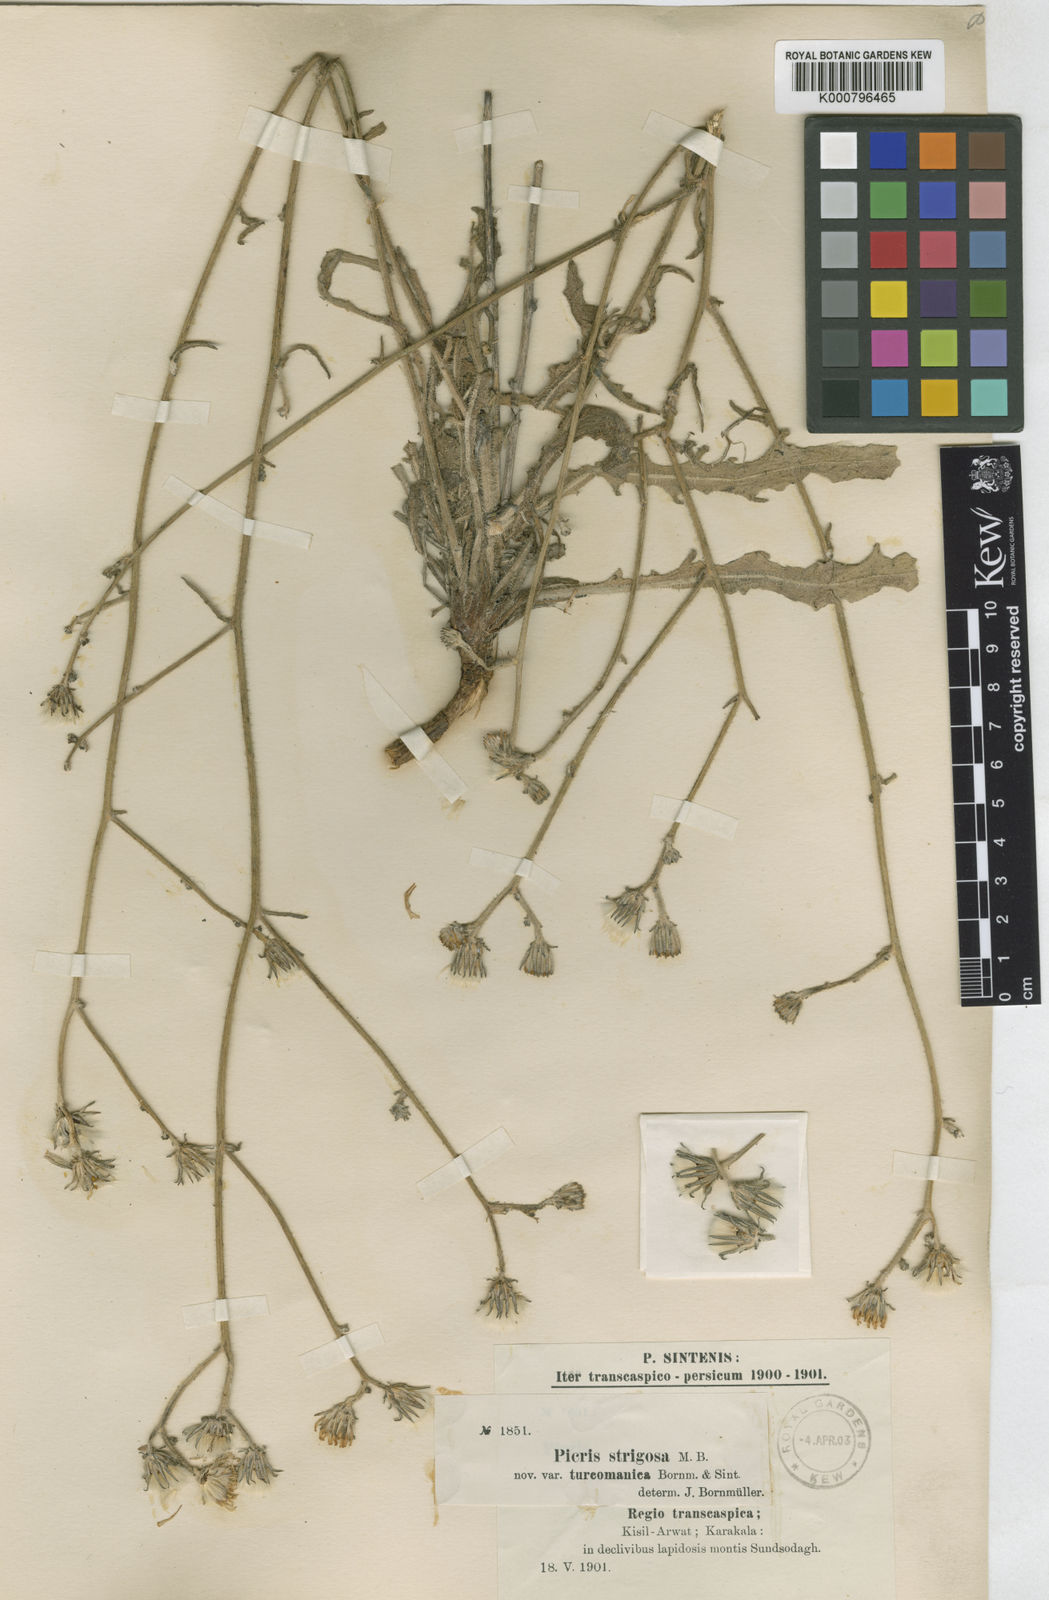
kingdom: Plantae
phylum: Tracheophyta
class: Magnoliopsida
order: Asterales
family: Asteraceae
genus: Picris
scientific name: Picris strigosa
